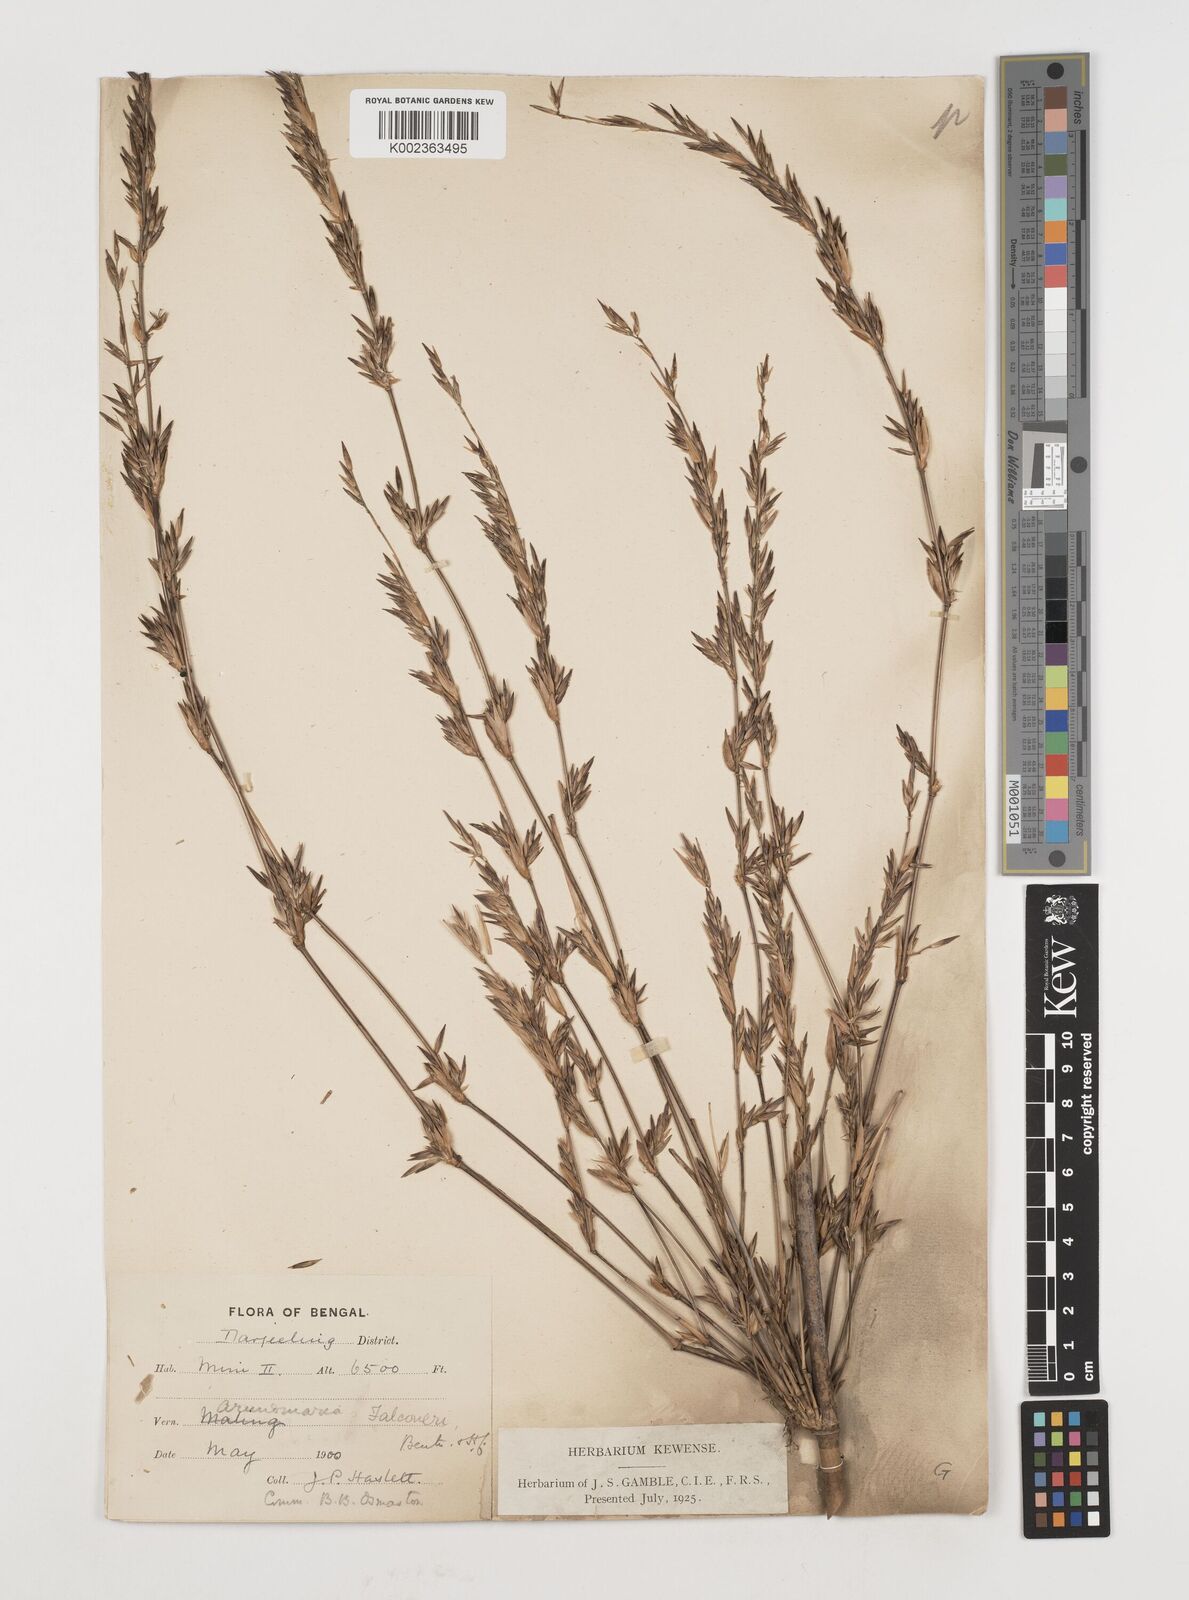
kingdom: Plantae
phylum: Tracheophyta
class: Liliopsida
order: Poales
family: Poaceae
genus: Himalayacalamus
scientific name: Himalayacalamus falconeri
